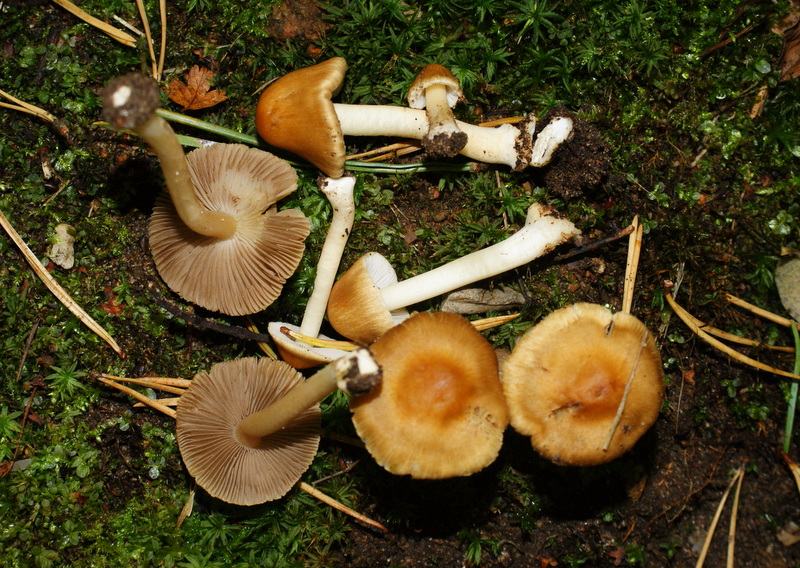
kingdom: Fungi
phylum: Basidiomycota
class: Agaricomycetes
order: Agaricales
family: Inocybaceae
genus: Inocybe
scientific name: Inocybe mixtilis
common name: randknoldet trævlhat
